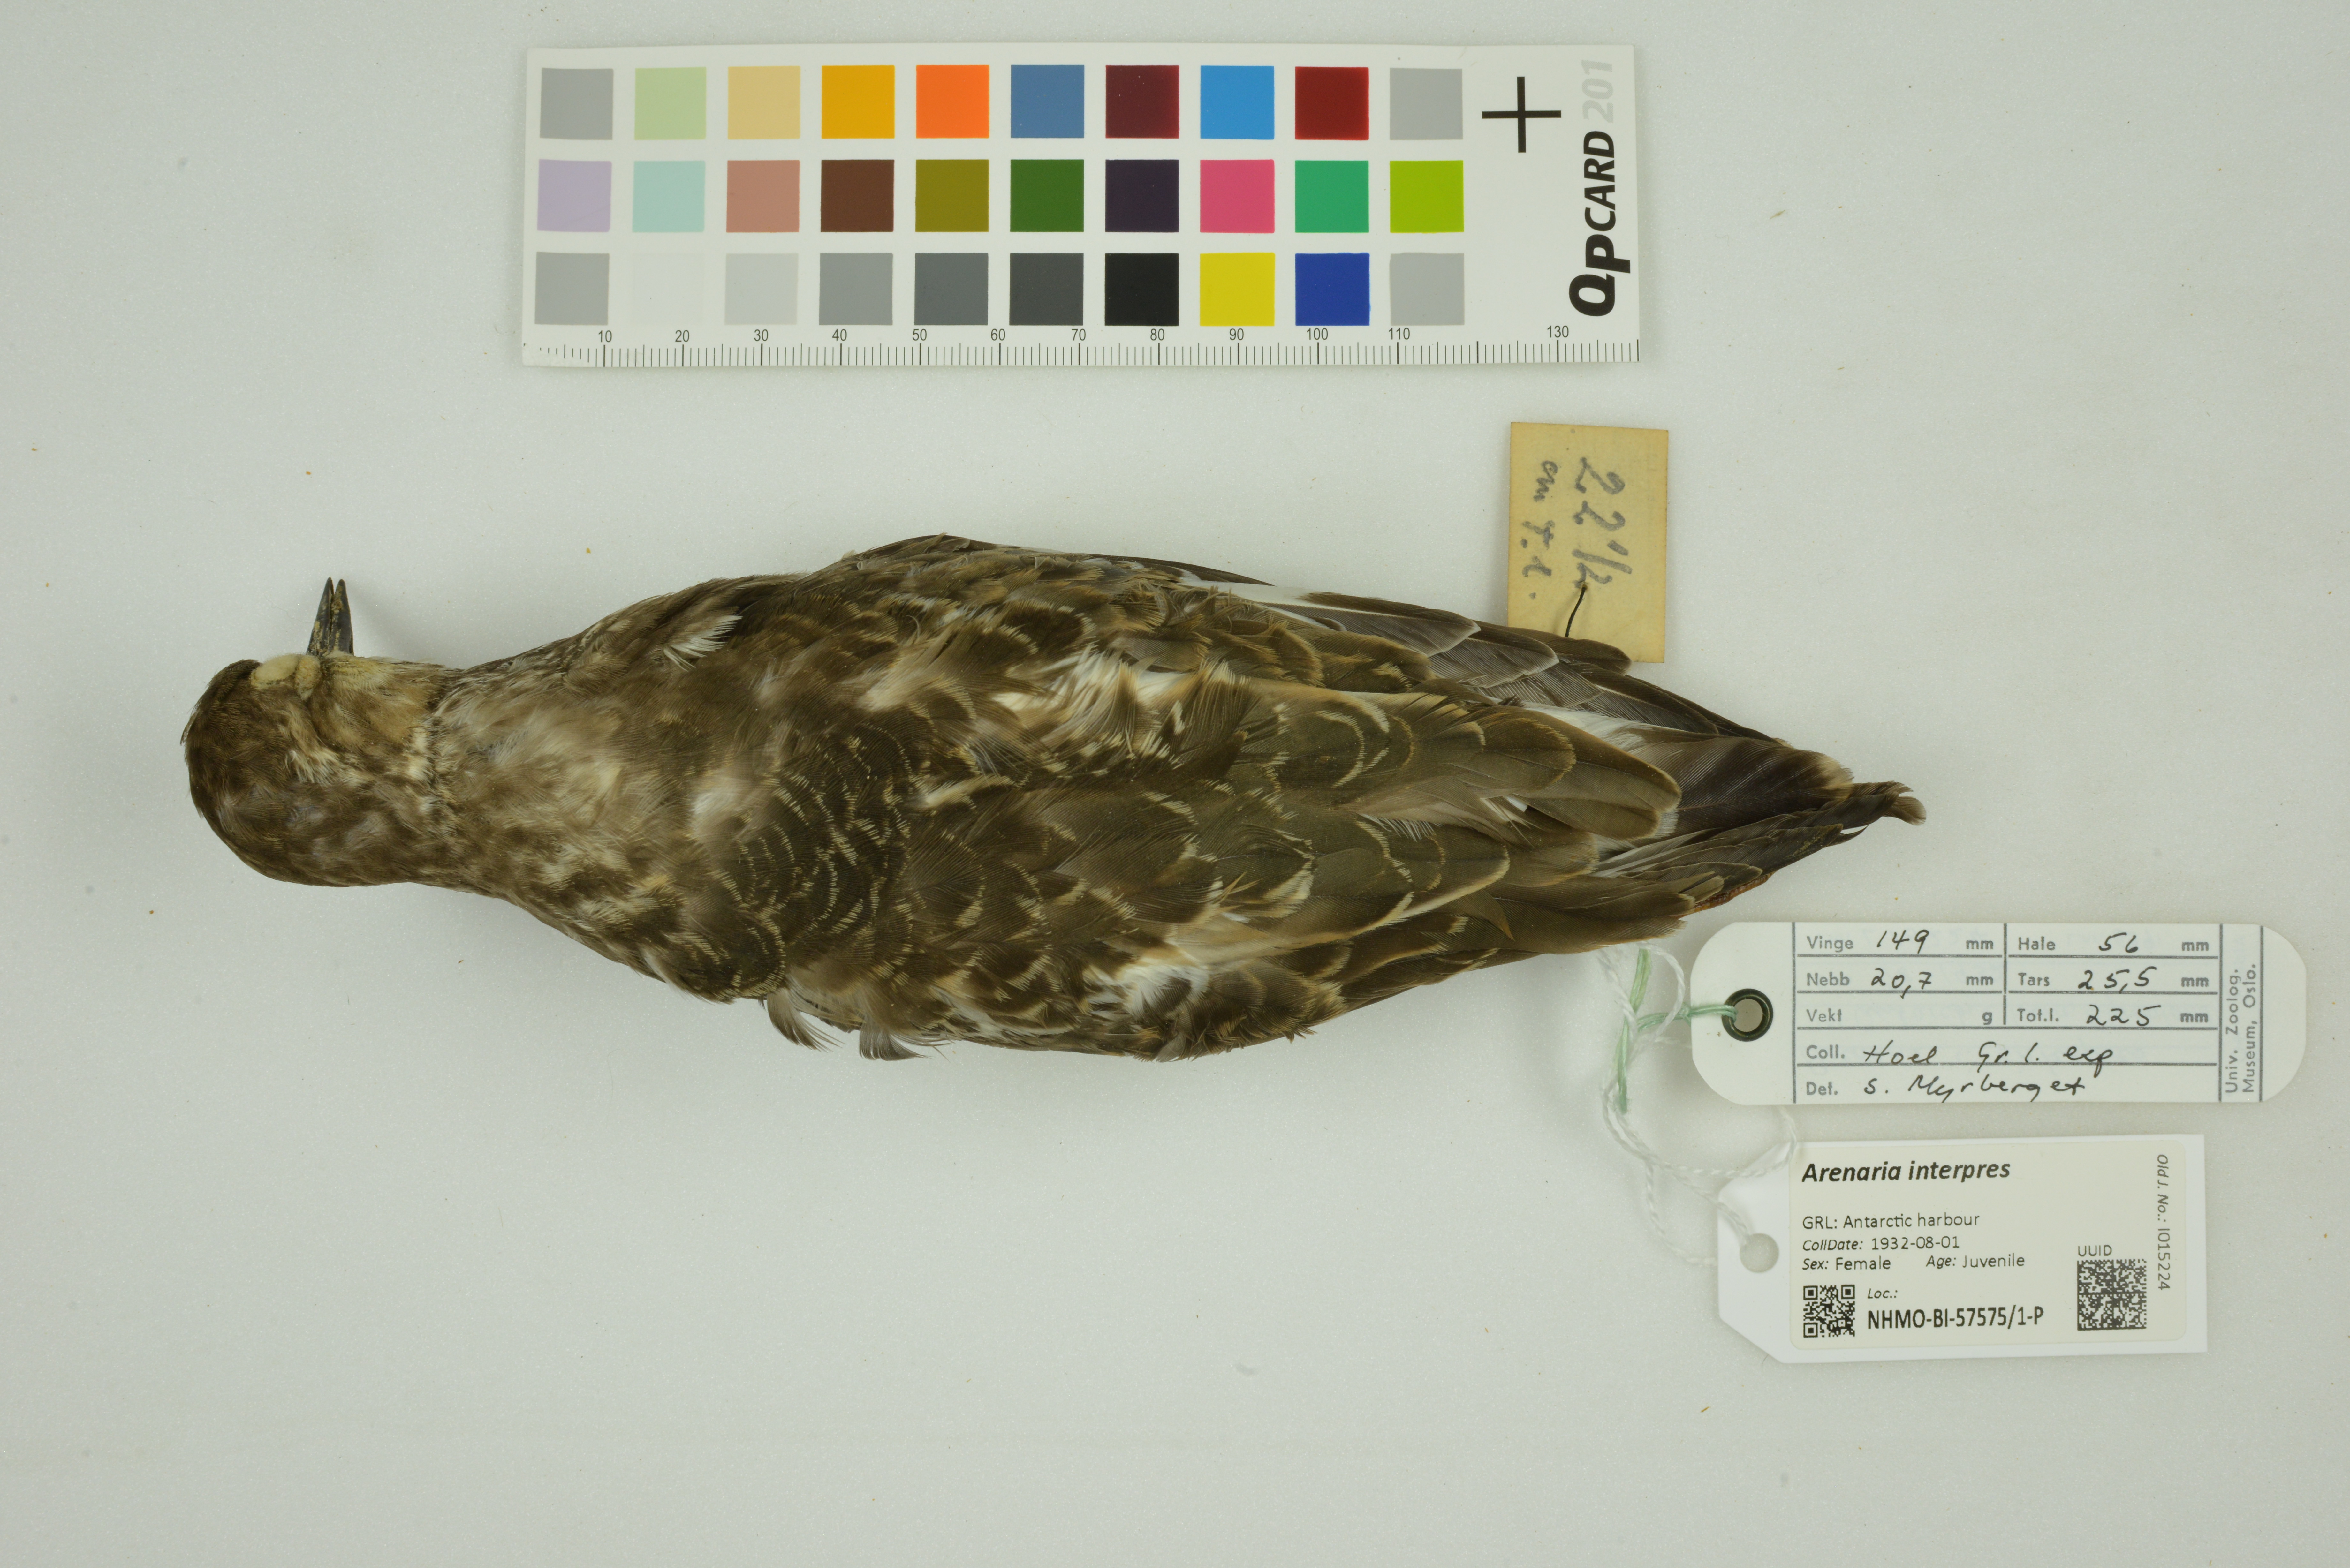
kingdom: Animalia
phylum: Chordata
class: Aves
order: Charadriiformes
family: Scolopacidae
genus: Arenaria
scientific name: Arenaria interpres
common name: Ruddy turnstone
